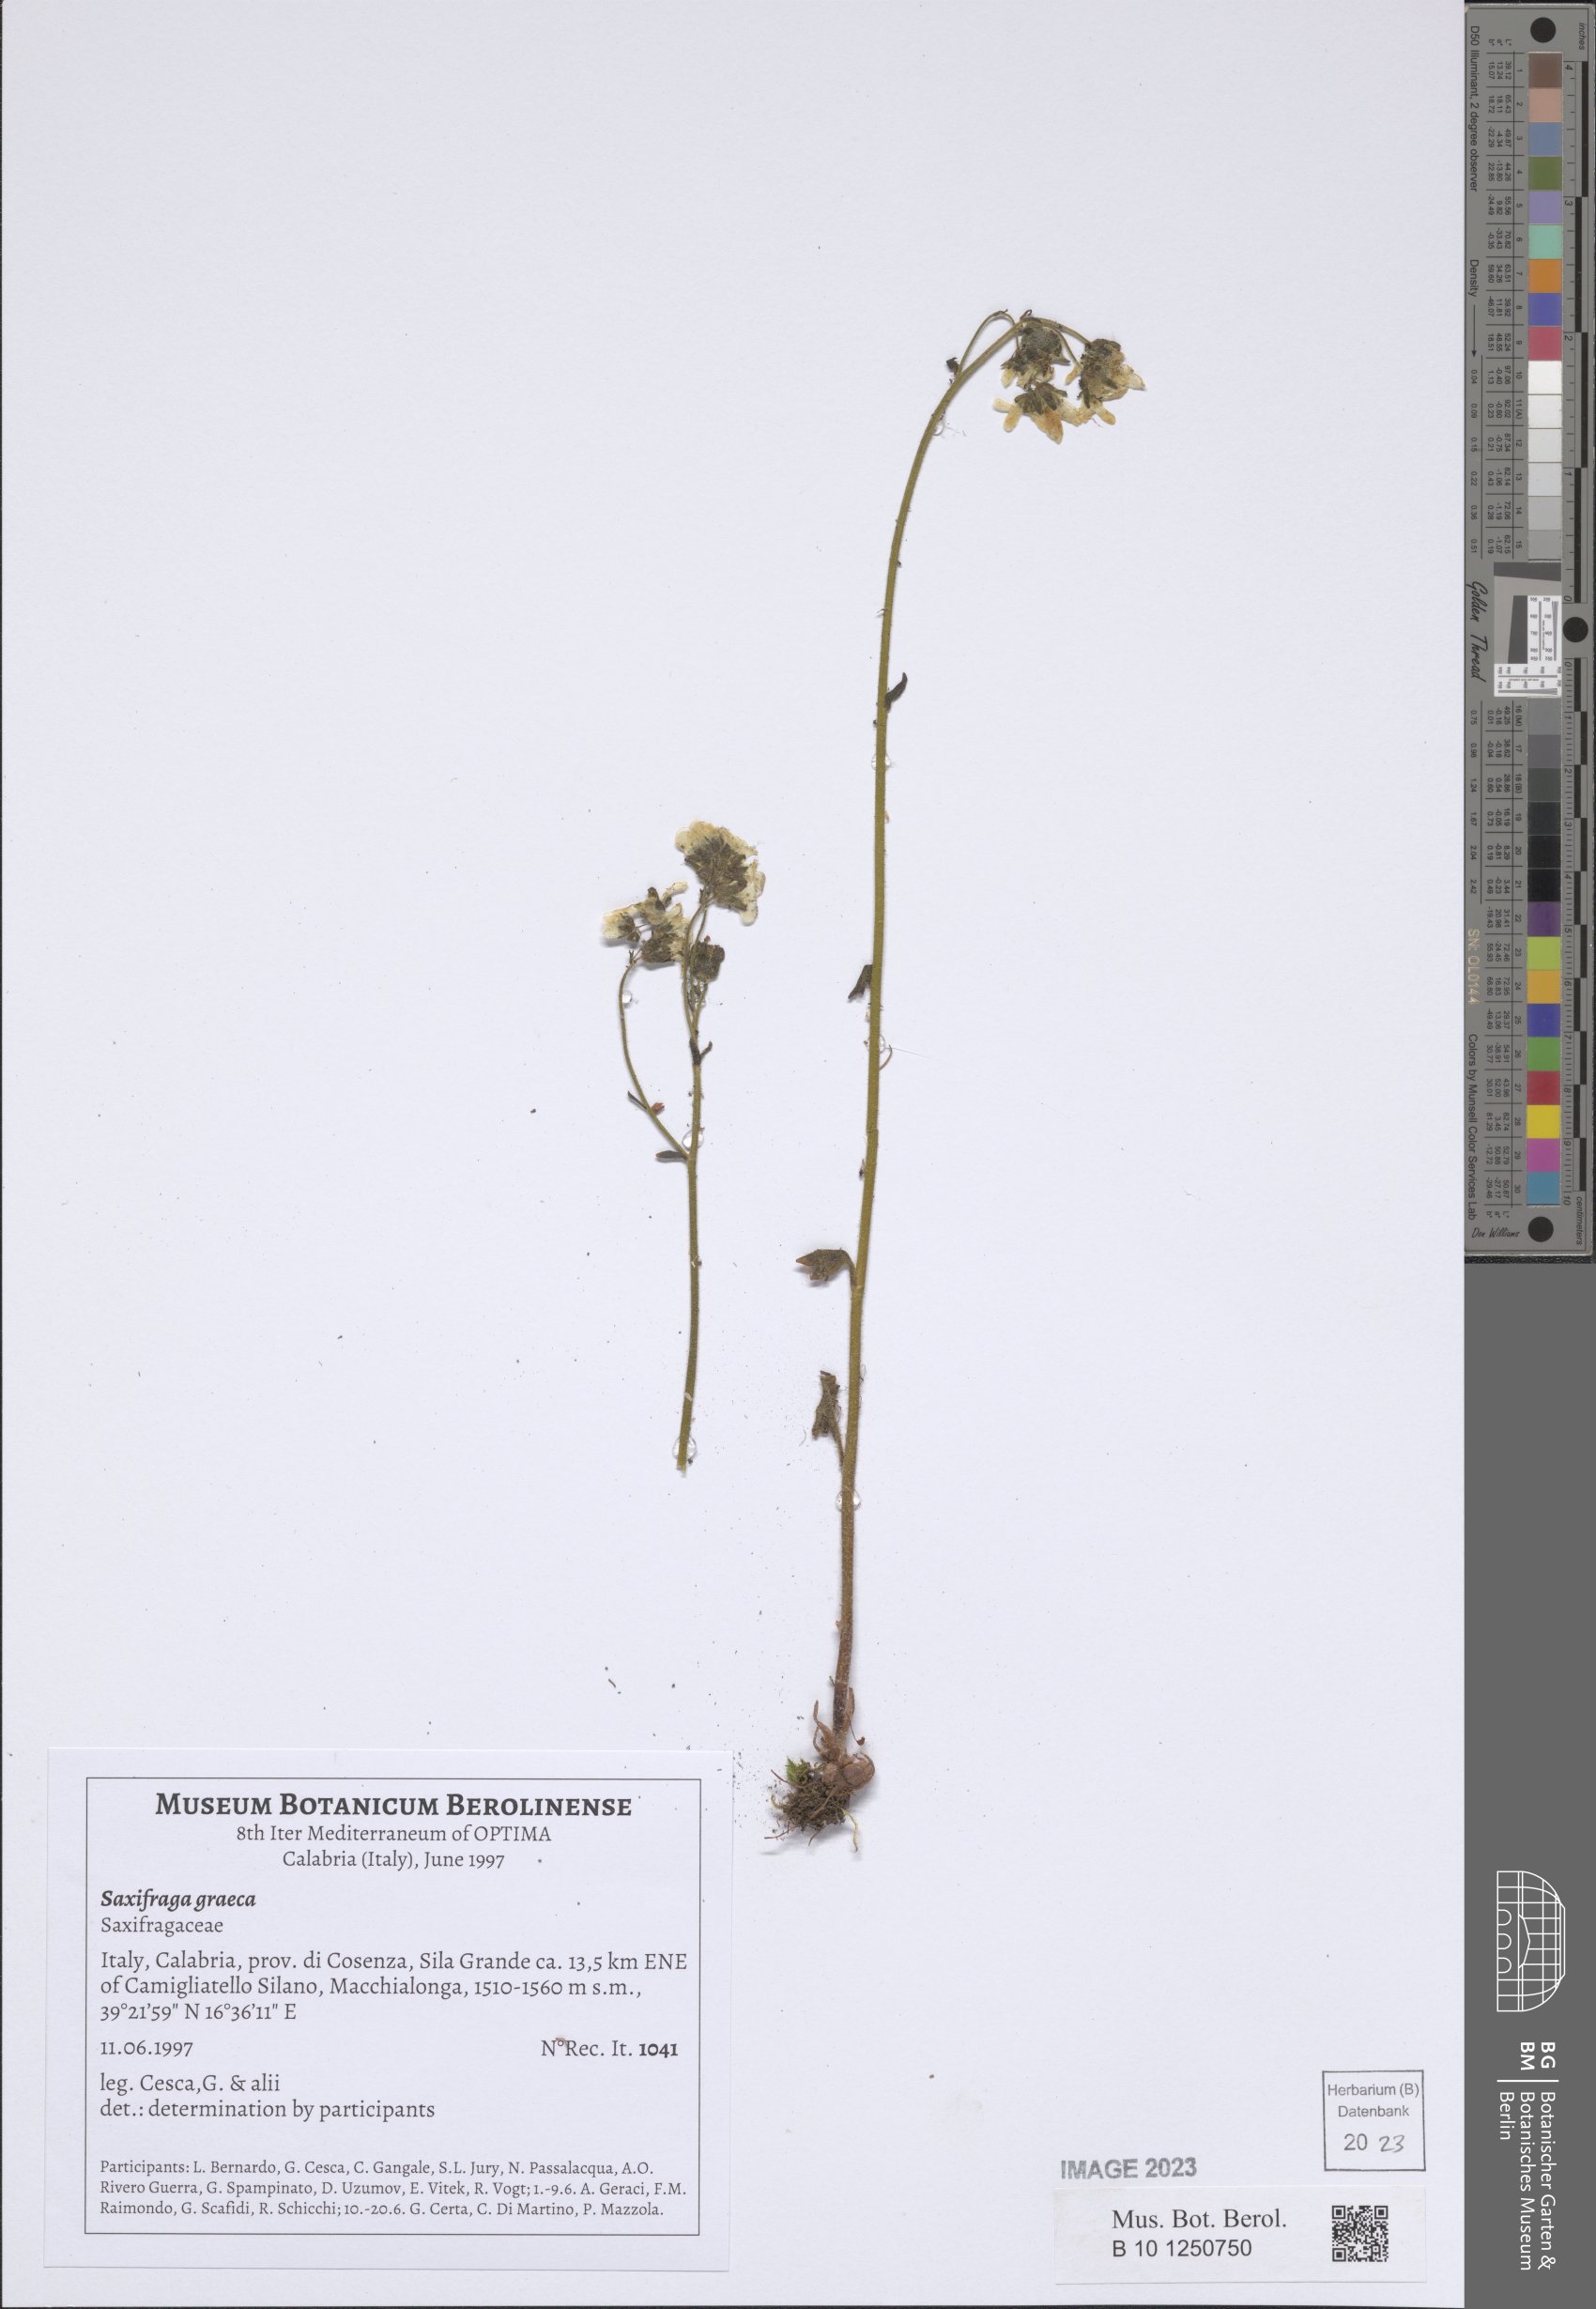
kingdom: Plantae
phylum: Tracheophyta
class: Magnoliopsida
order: Saxifragales
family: Saxifragaceae
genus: Saxifraga
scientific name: Saxifraga carpetana
